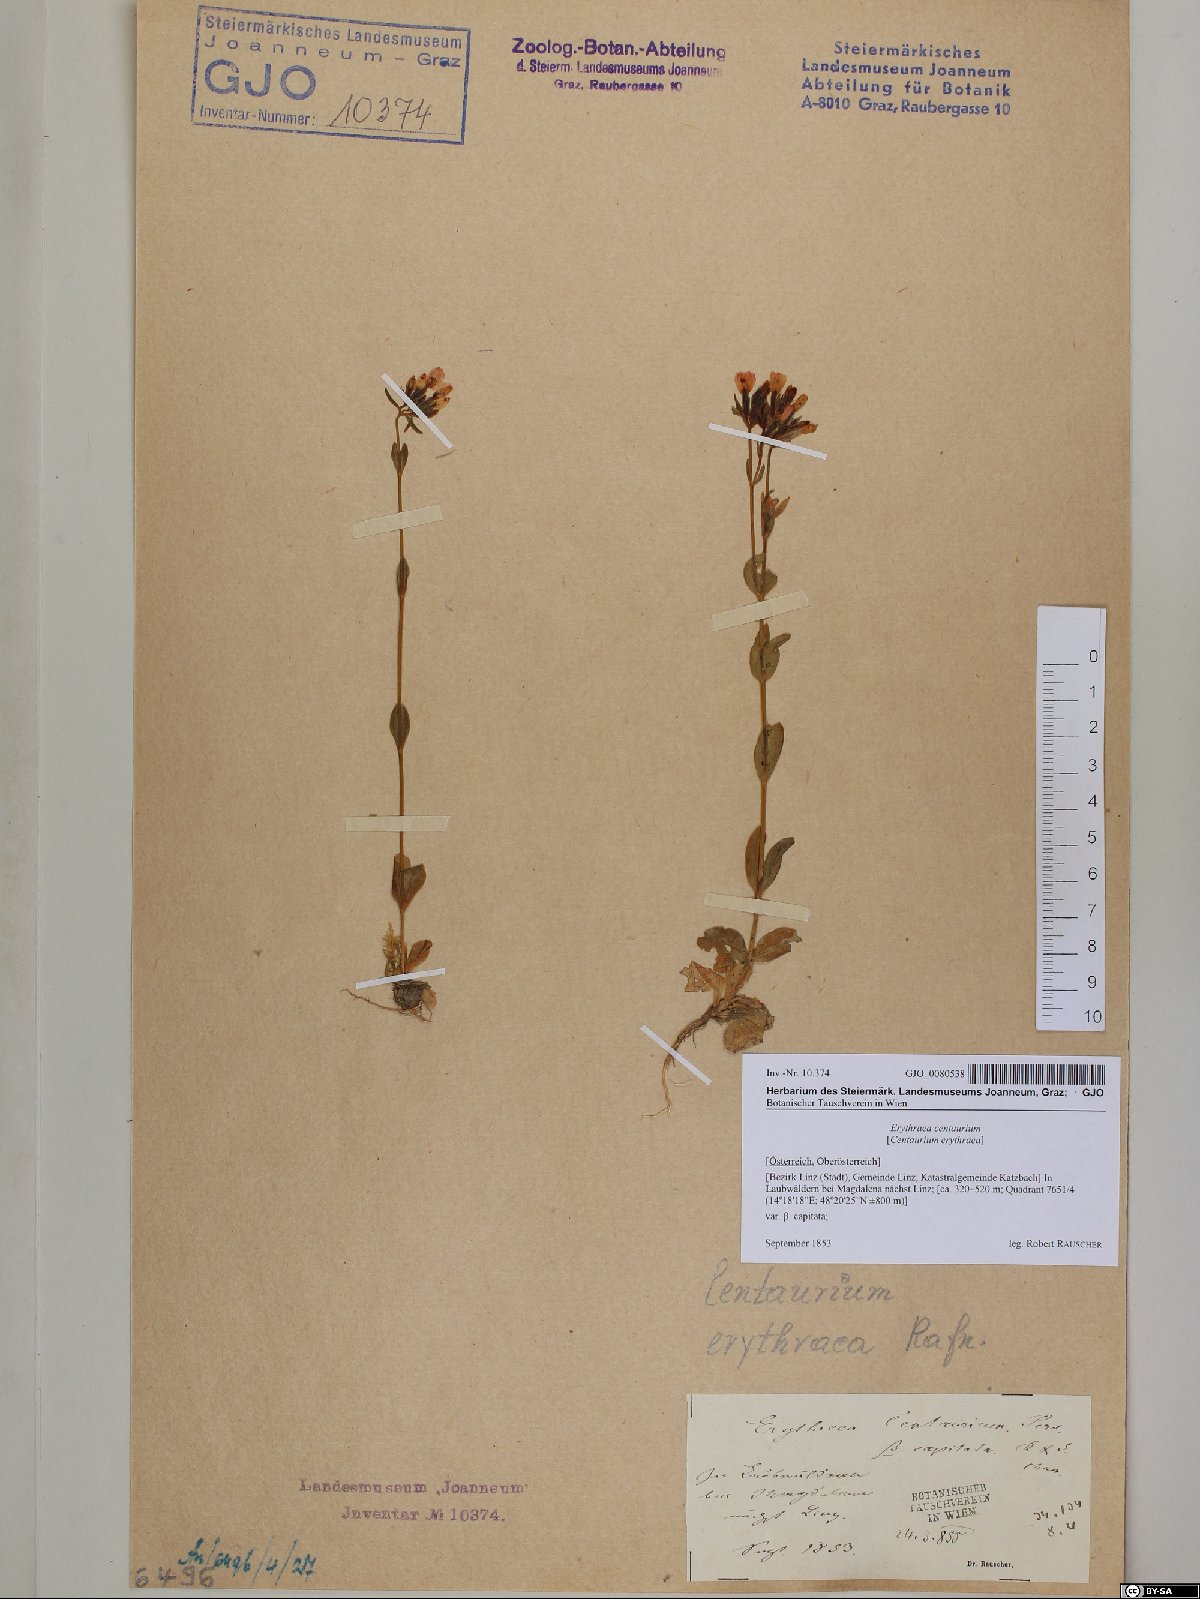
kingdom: Plantae
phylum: Tracheophyta
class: Magnoliopsida
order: Gentianales
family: Gentianaceae
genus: Centaurium
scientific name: Centaurium erythraea
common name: Common centaury
